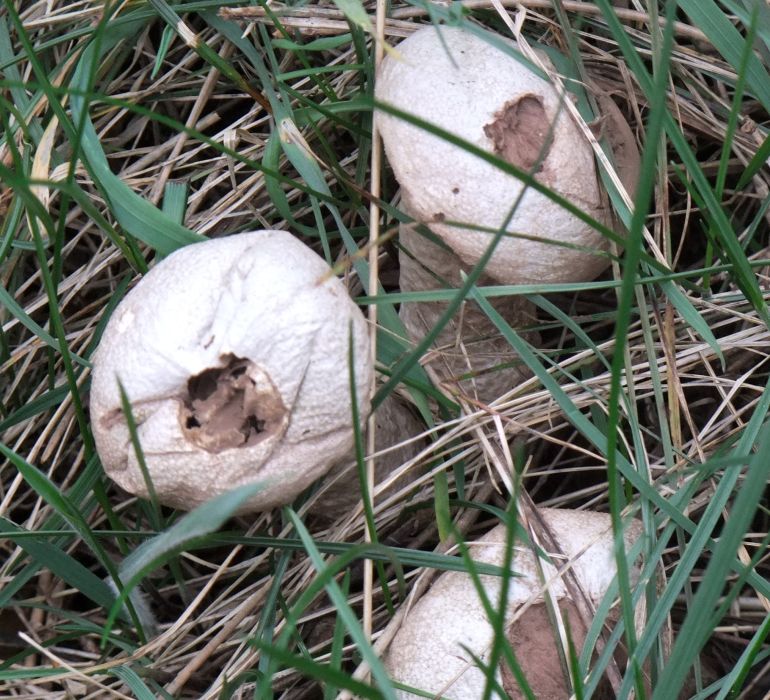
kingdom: Fungi
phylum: Basidiomycota
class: Agaricomycetes
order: Agaricales
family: Agaricaceae
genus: Lycoperdon
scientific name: Lycoperdon
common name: støvbold
